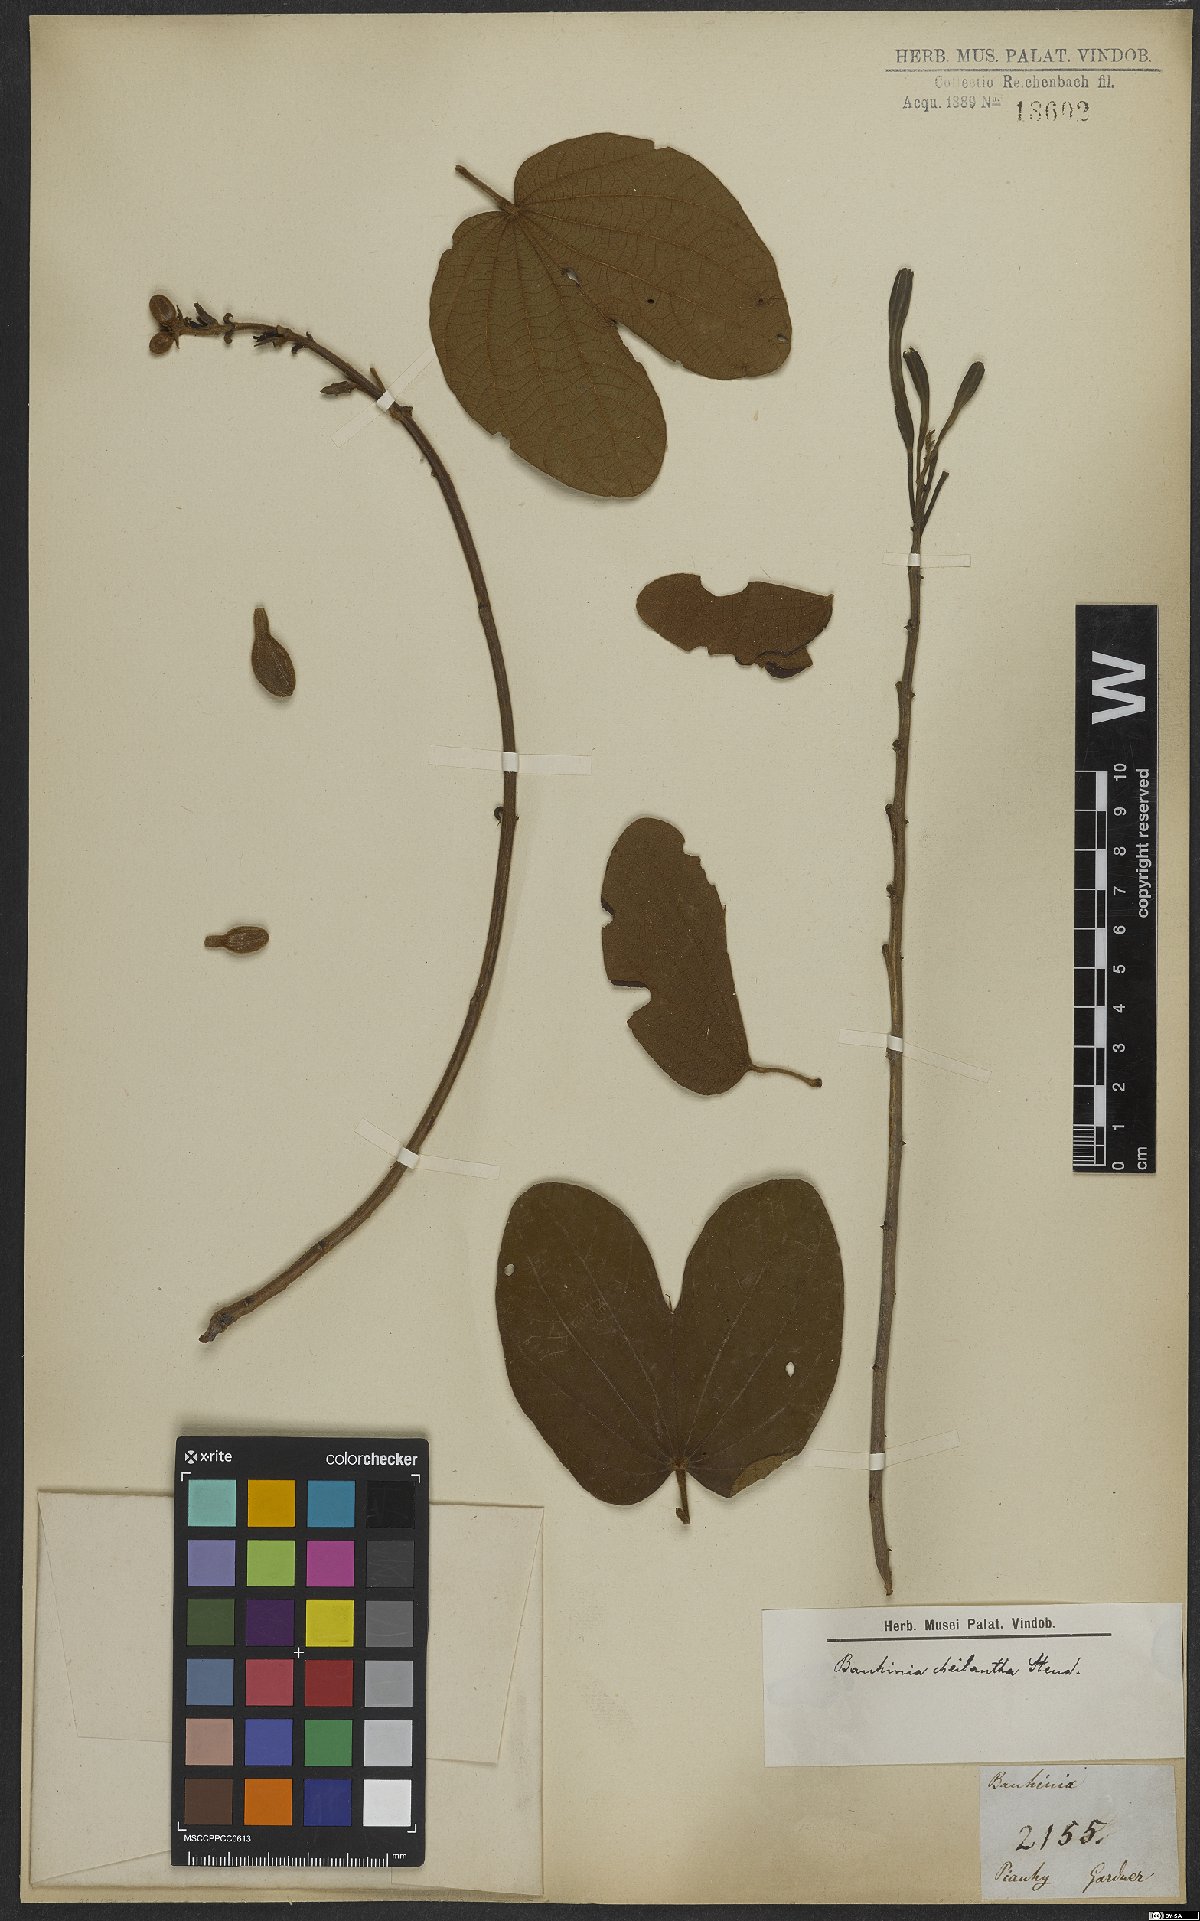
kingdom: Plantae
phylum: Tracheophyta
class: Magnoliopsida
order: Fabales
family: Fabaceae
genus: Bauhinia
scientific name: Bauhinia cheilantha
